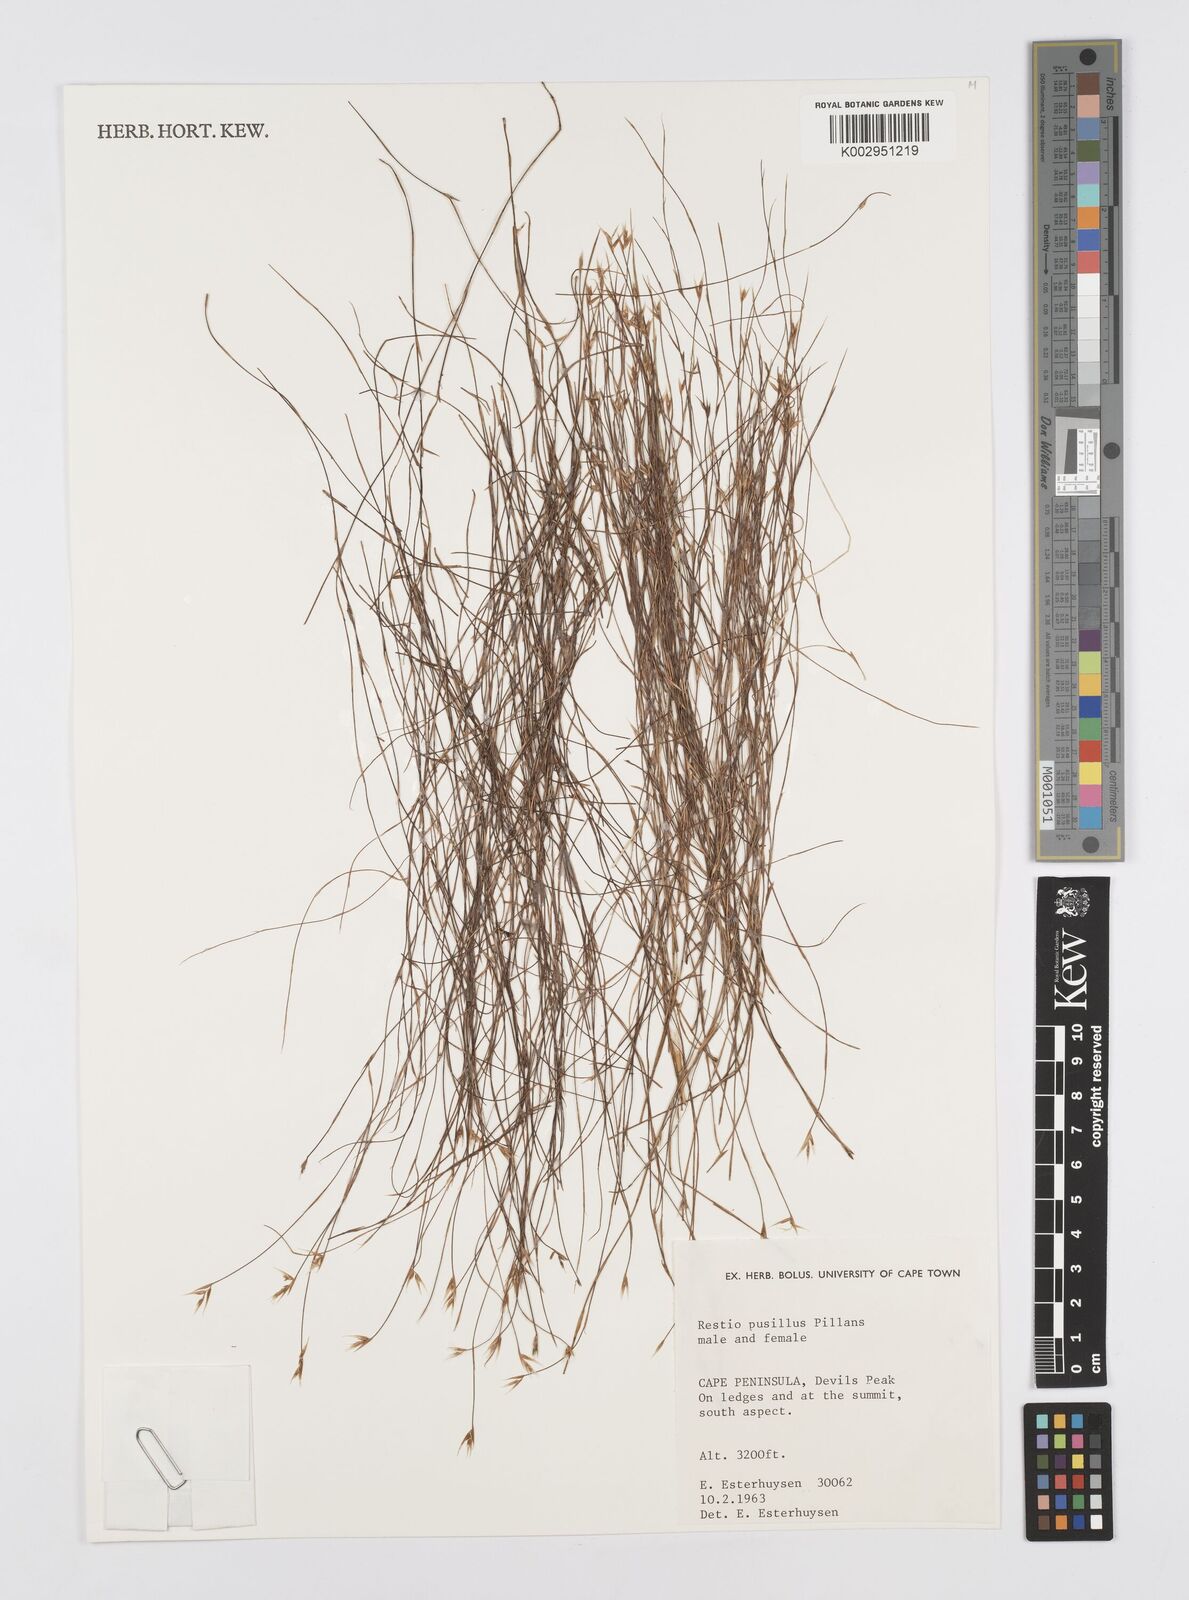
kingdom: Plantae
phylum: Tracheophyta
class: Liliopsida
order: Poales
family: Restionaceae
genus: Restio
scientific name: Restio leptostachyus
